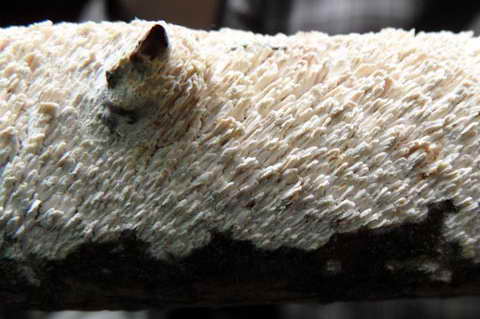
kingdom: Fungi
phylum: Basidiomycota
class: Agaricomycetes
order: Hymenochaetales
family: Schizoporaceae
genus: Schizopora
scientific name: Schizopora paradoxa
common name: hvid tandsvamp
